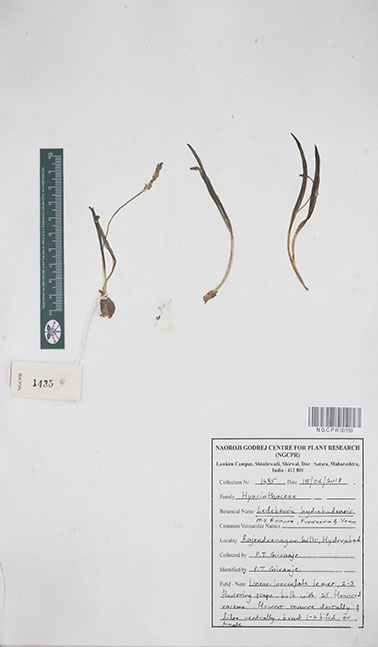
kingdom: Plantae
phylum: Tracheophyta
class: Liliopsida
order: Asparagales
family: Asparagaceae
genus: Ledebouria
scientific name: Ledebouria hyderabadensis
